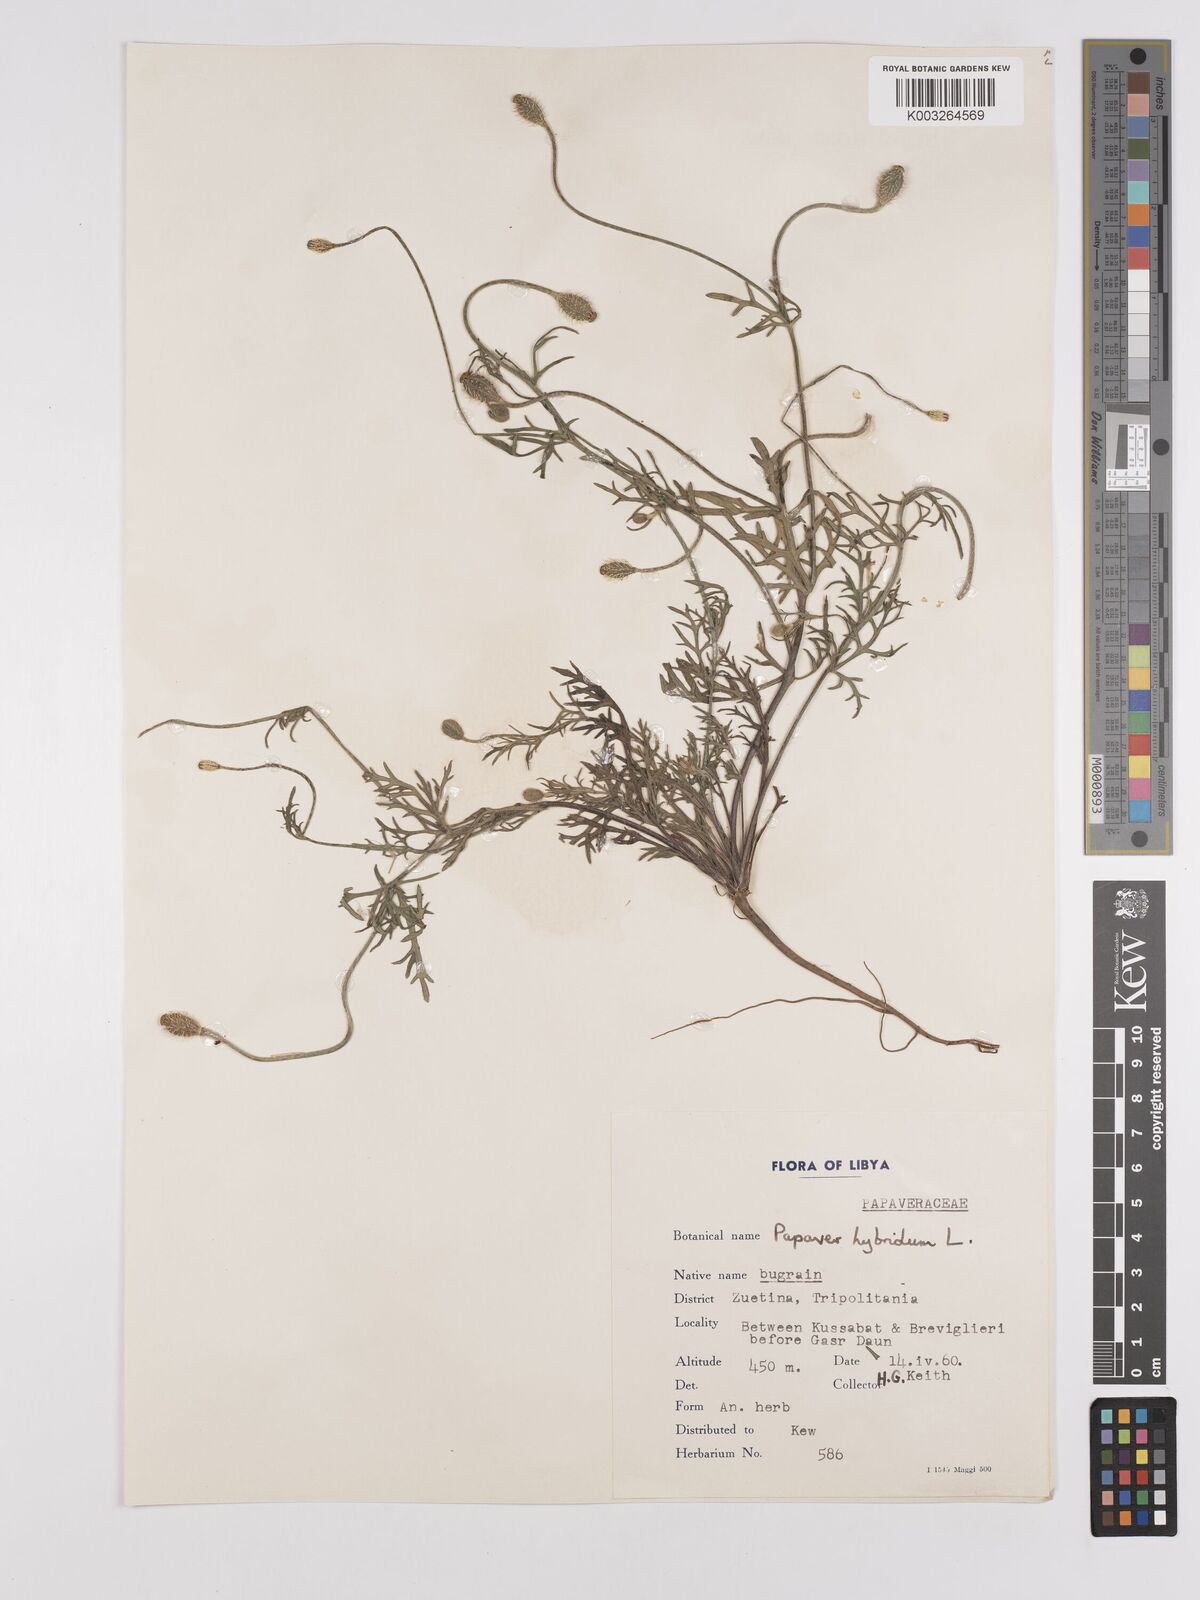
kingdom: Plantae
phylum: Tracheophyta
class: Magnoliopsida
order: Ranunculales
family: Papaveraceae
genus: Papaver
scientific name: Papaver
